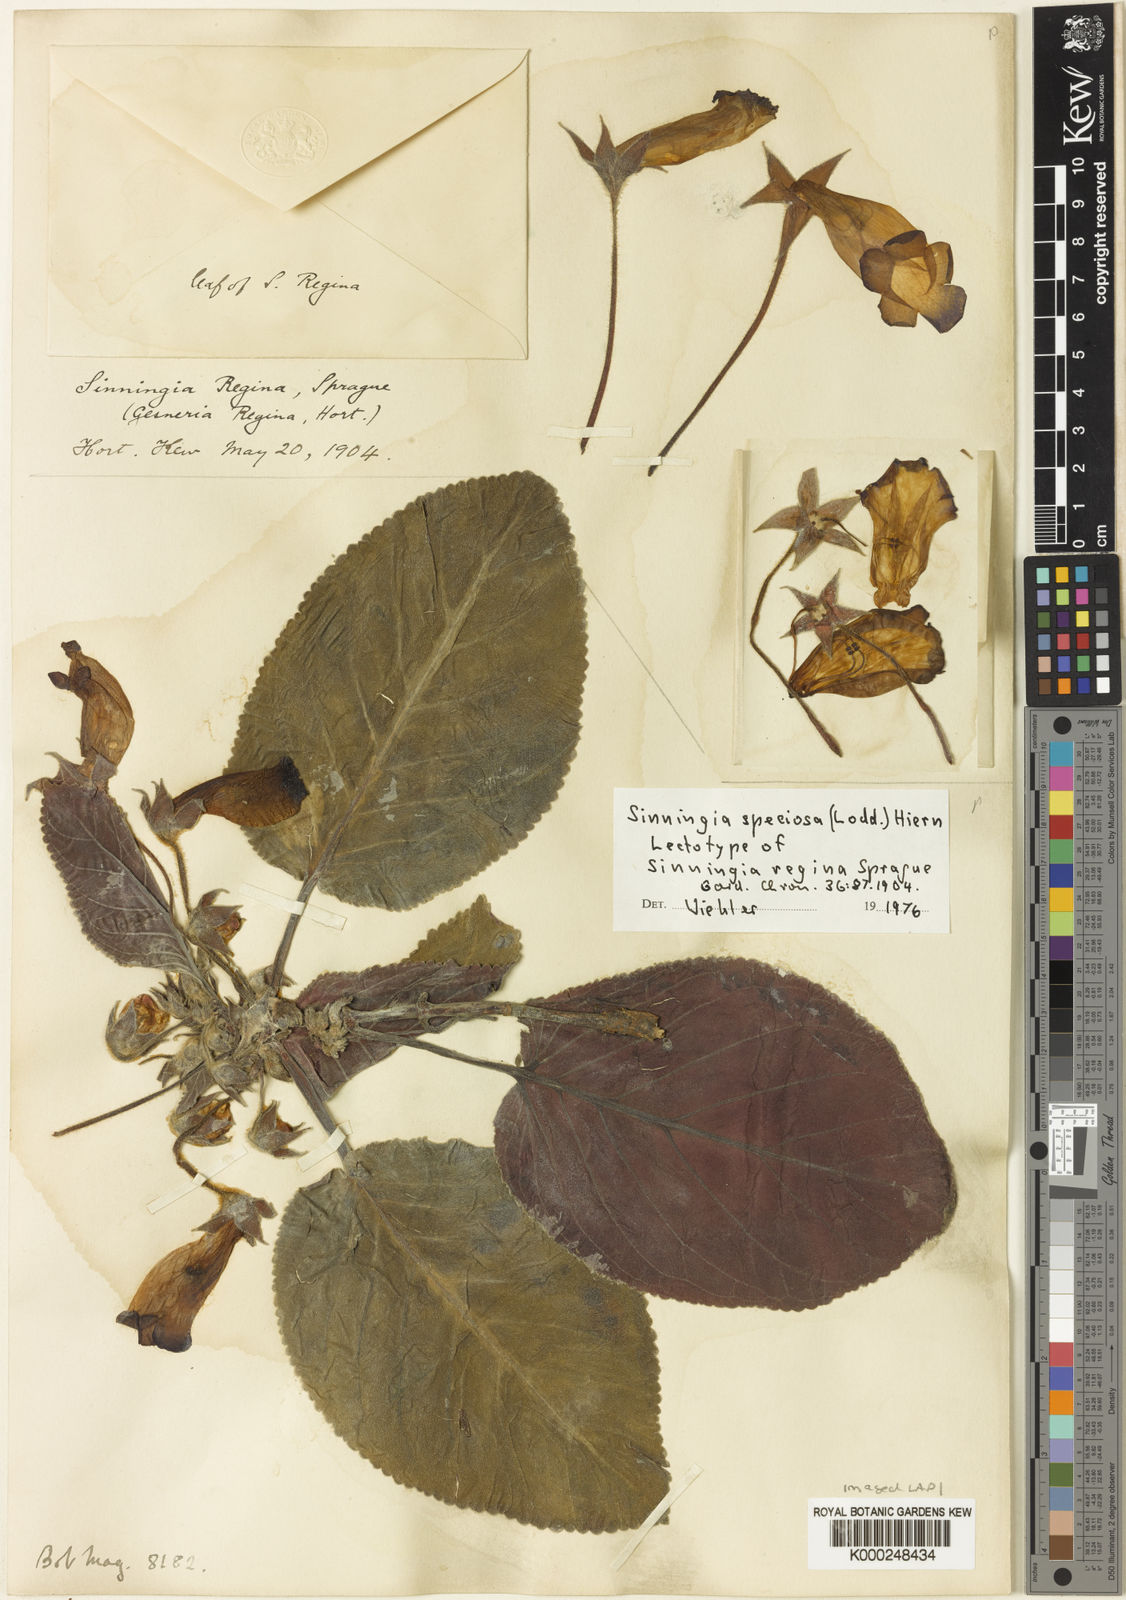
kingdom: Plantae
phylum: Tracheophyta
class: Magnoliopsida
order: Lamiales
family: Gesneriaceae
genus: Sinningia
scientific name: Sinningia speciosa
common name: Brazilian gloxinia
